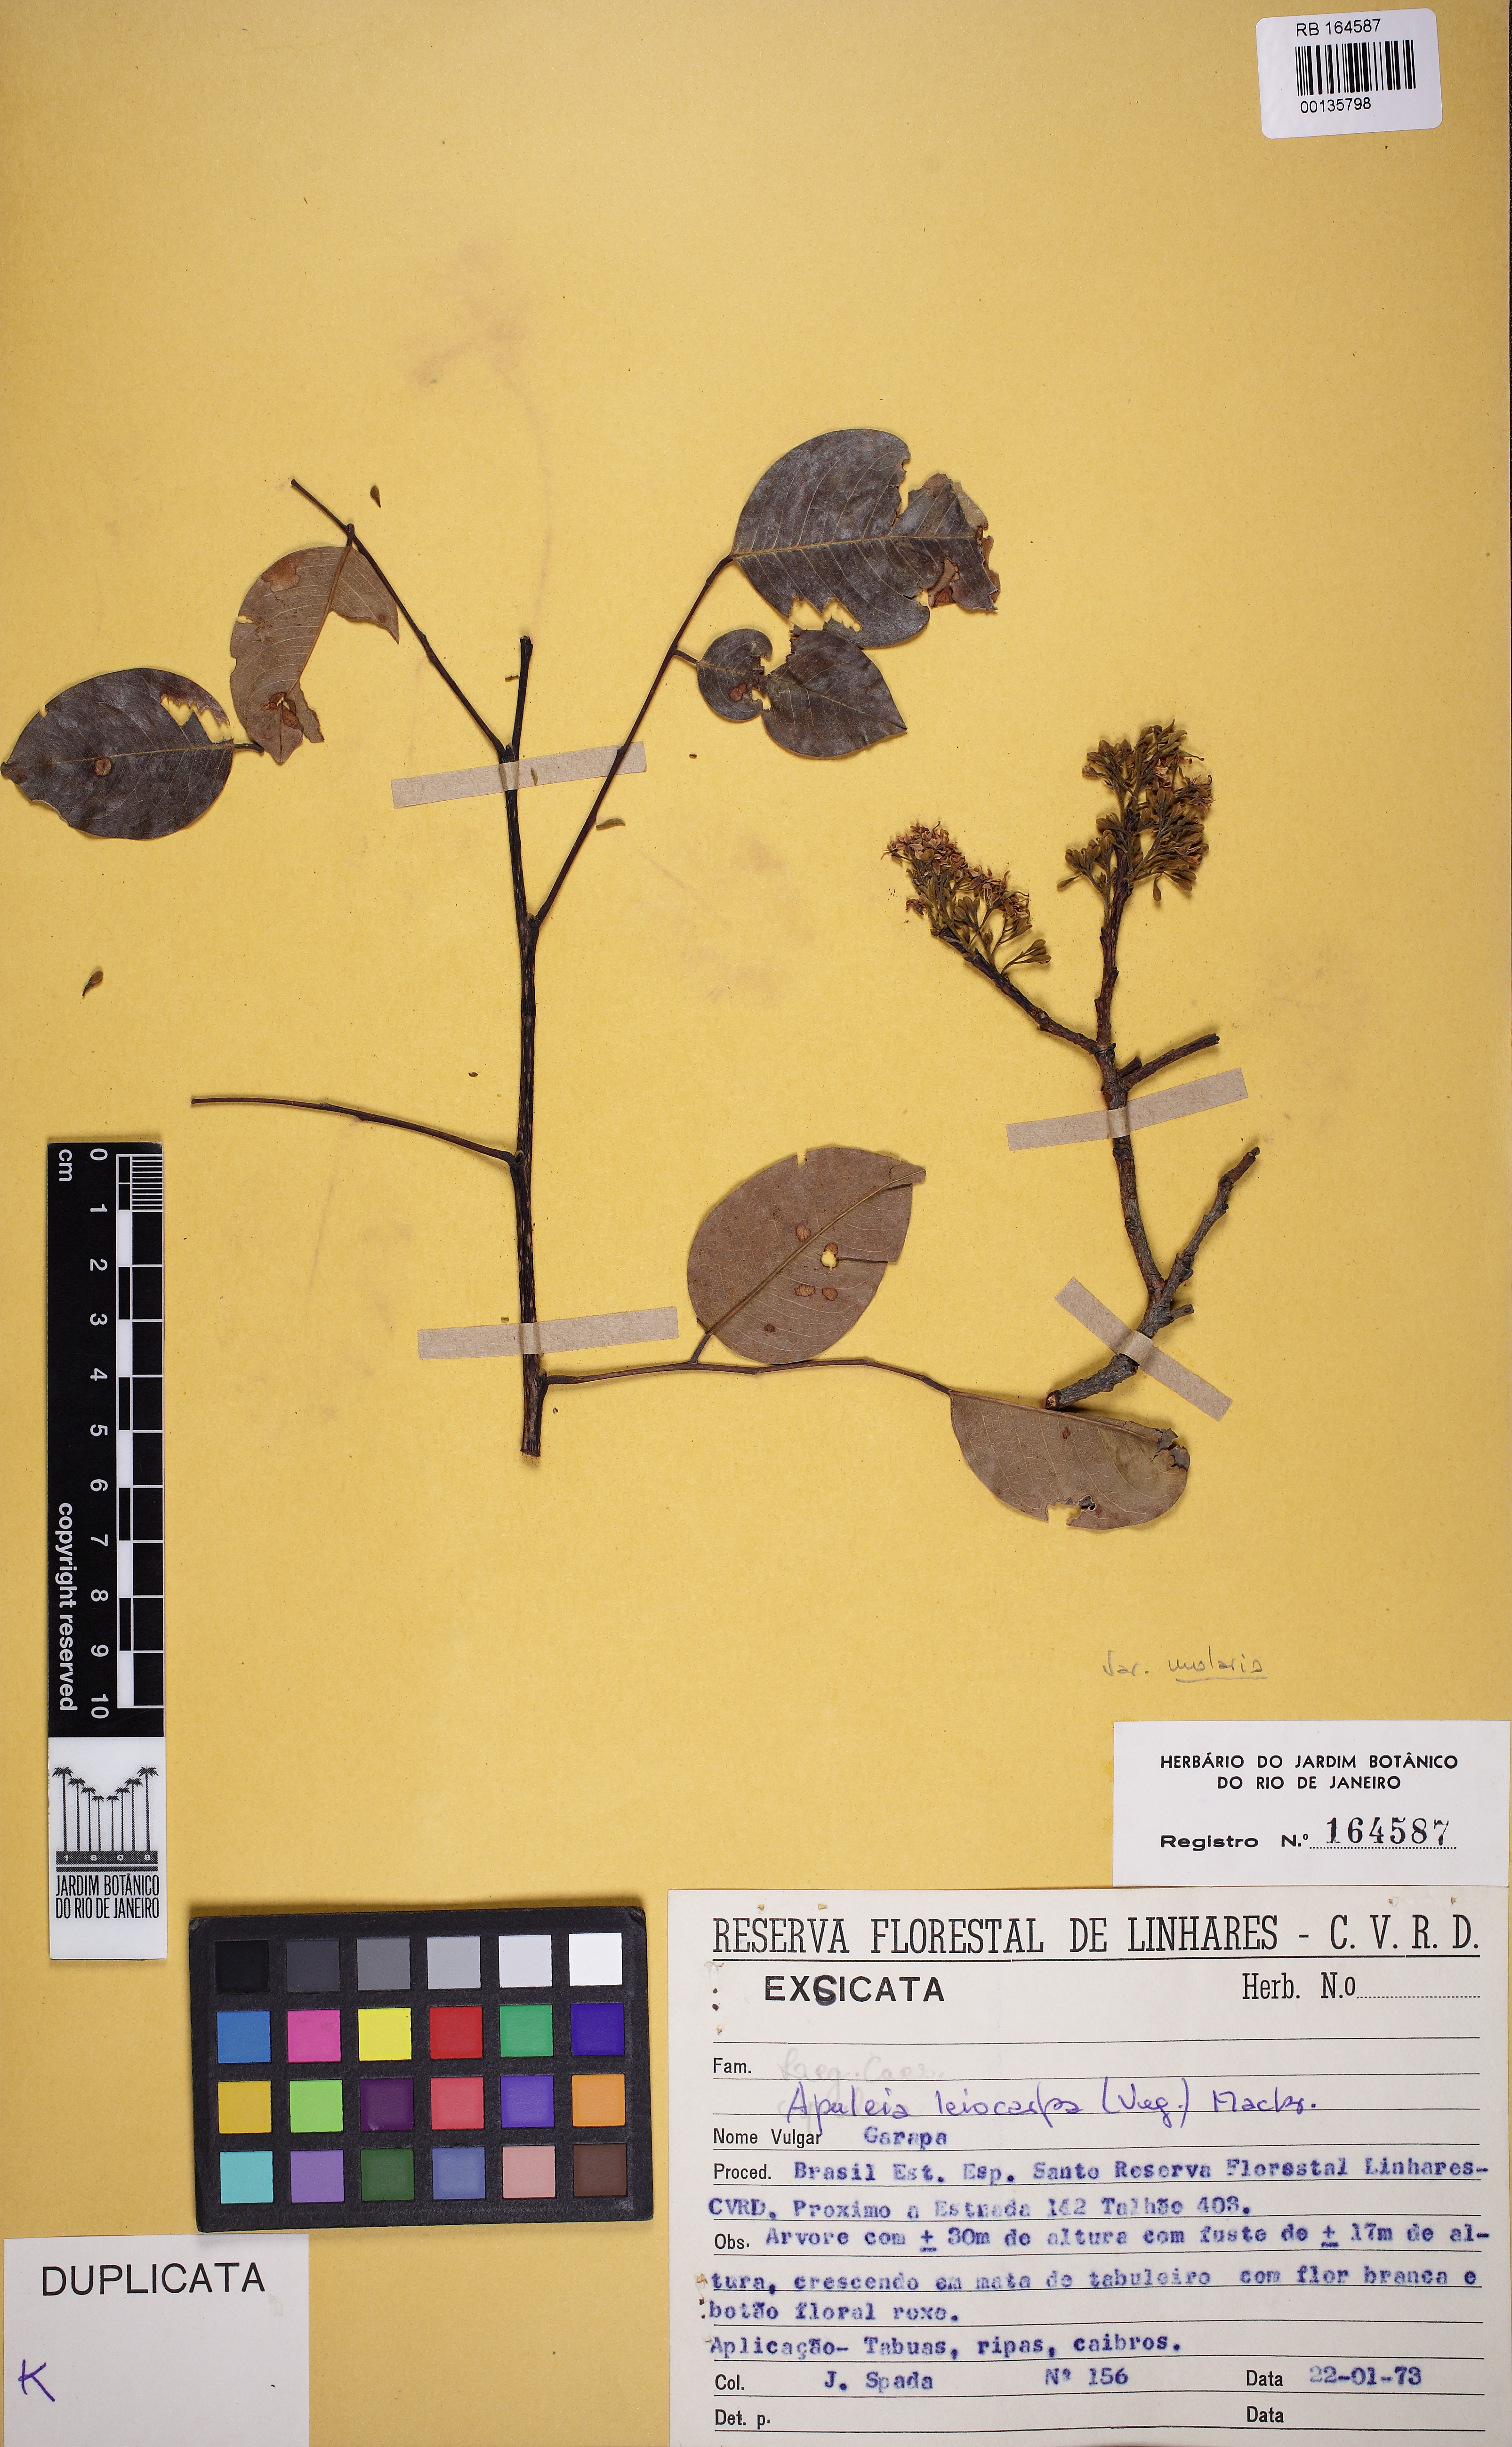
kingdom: Plantae
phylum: Tracheophyta
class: Magnoliopsida
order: Fabales
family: Fabaceae
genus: Apuleia
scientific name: Apuleia leiocarpa
